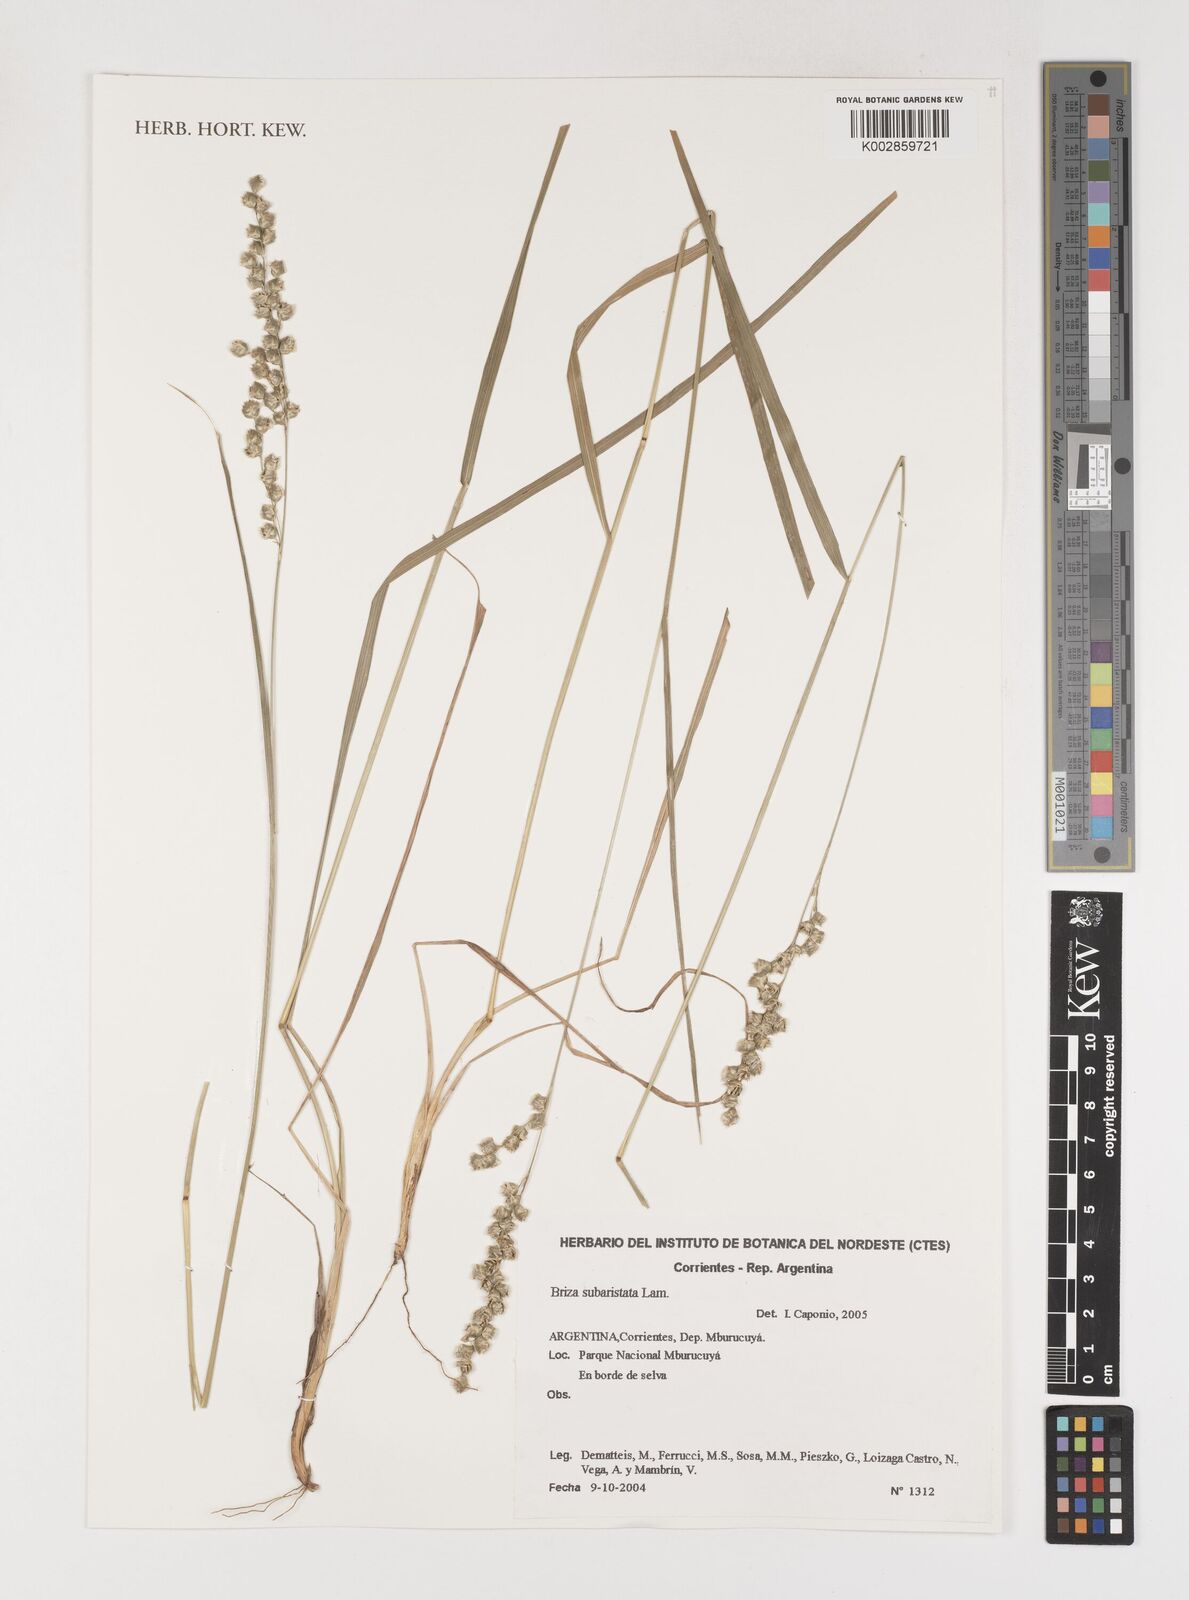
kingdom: Plantae
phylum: Tracheophyta
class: Liliopsida
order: Poales
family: Poaceae
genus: Chascolytrum
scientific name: Chascolytrum subaristatum
